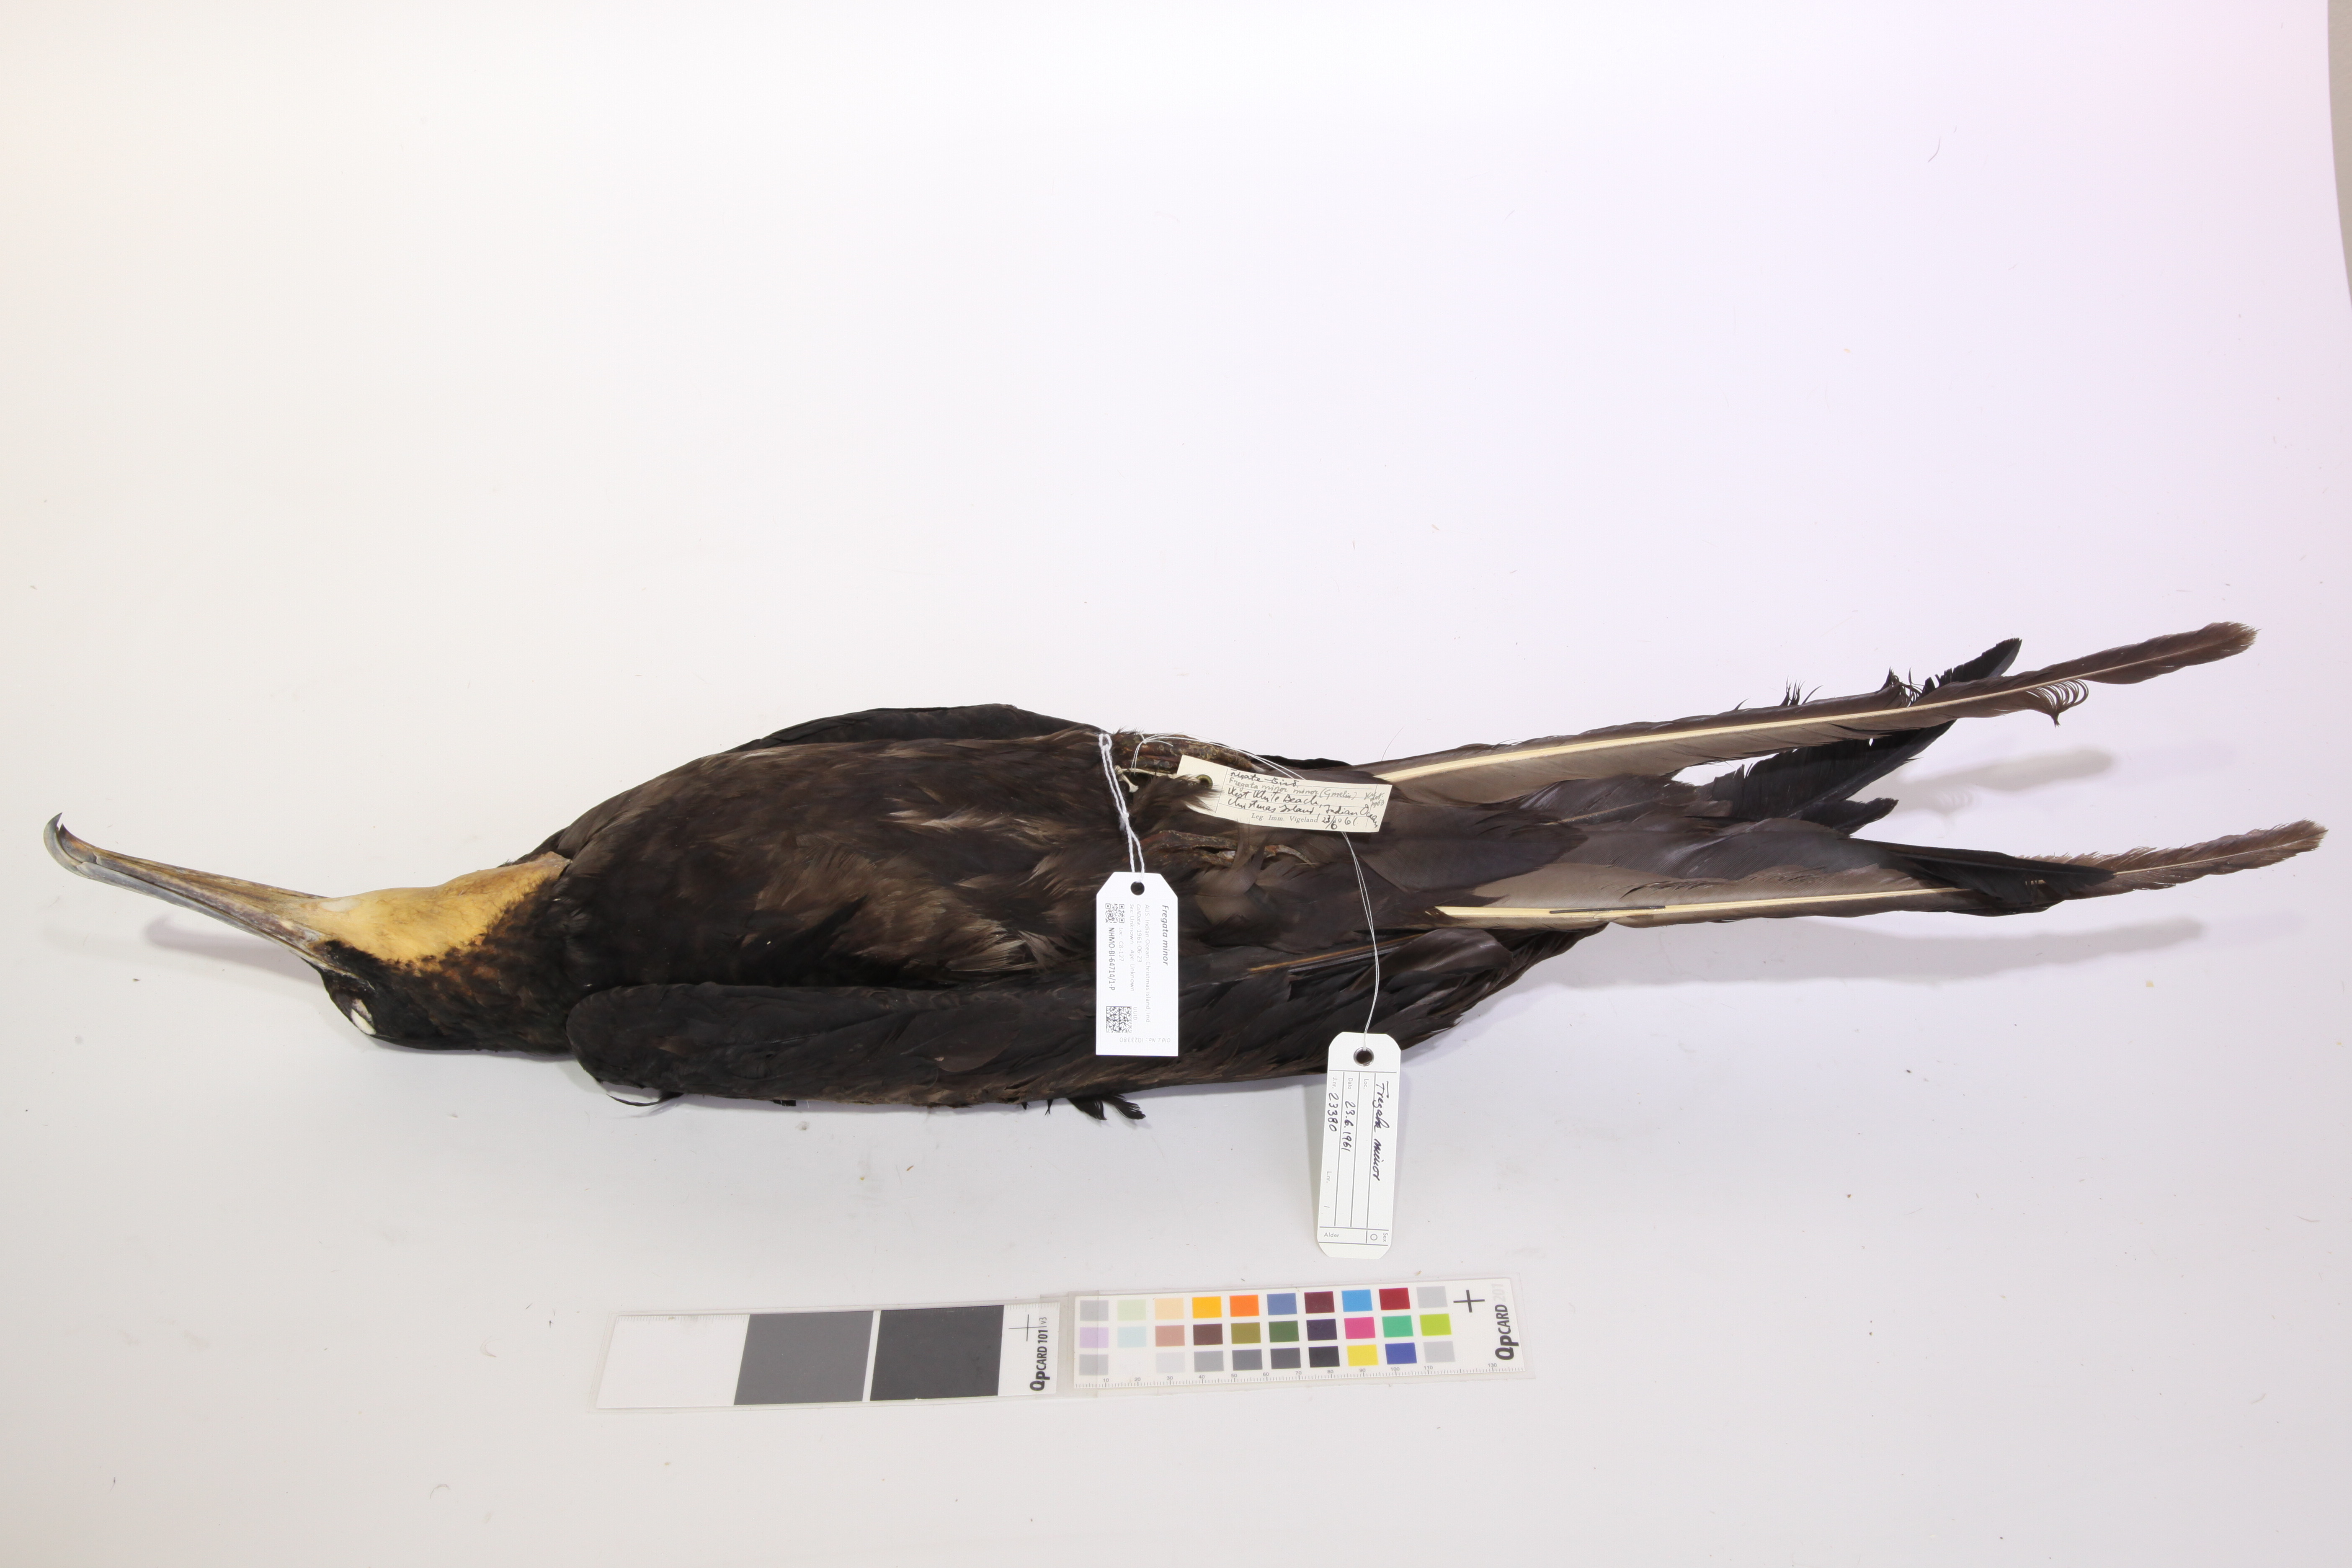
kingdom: Animalia
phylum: Chordata
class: Aves
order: Suliformes
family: Fregatidae
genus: Fregata
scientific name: Fregata minor
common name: Great frigatebird
